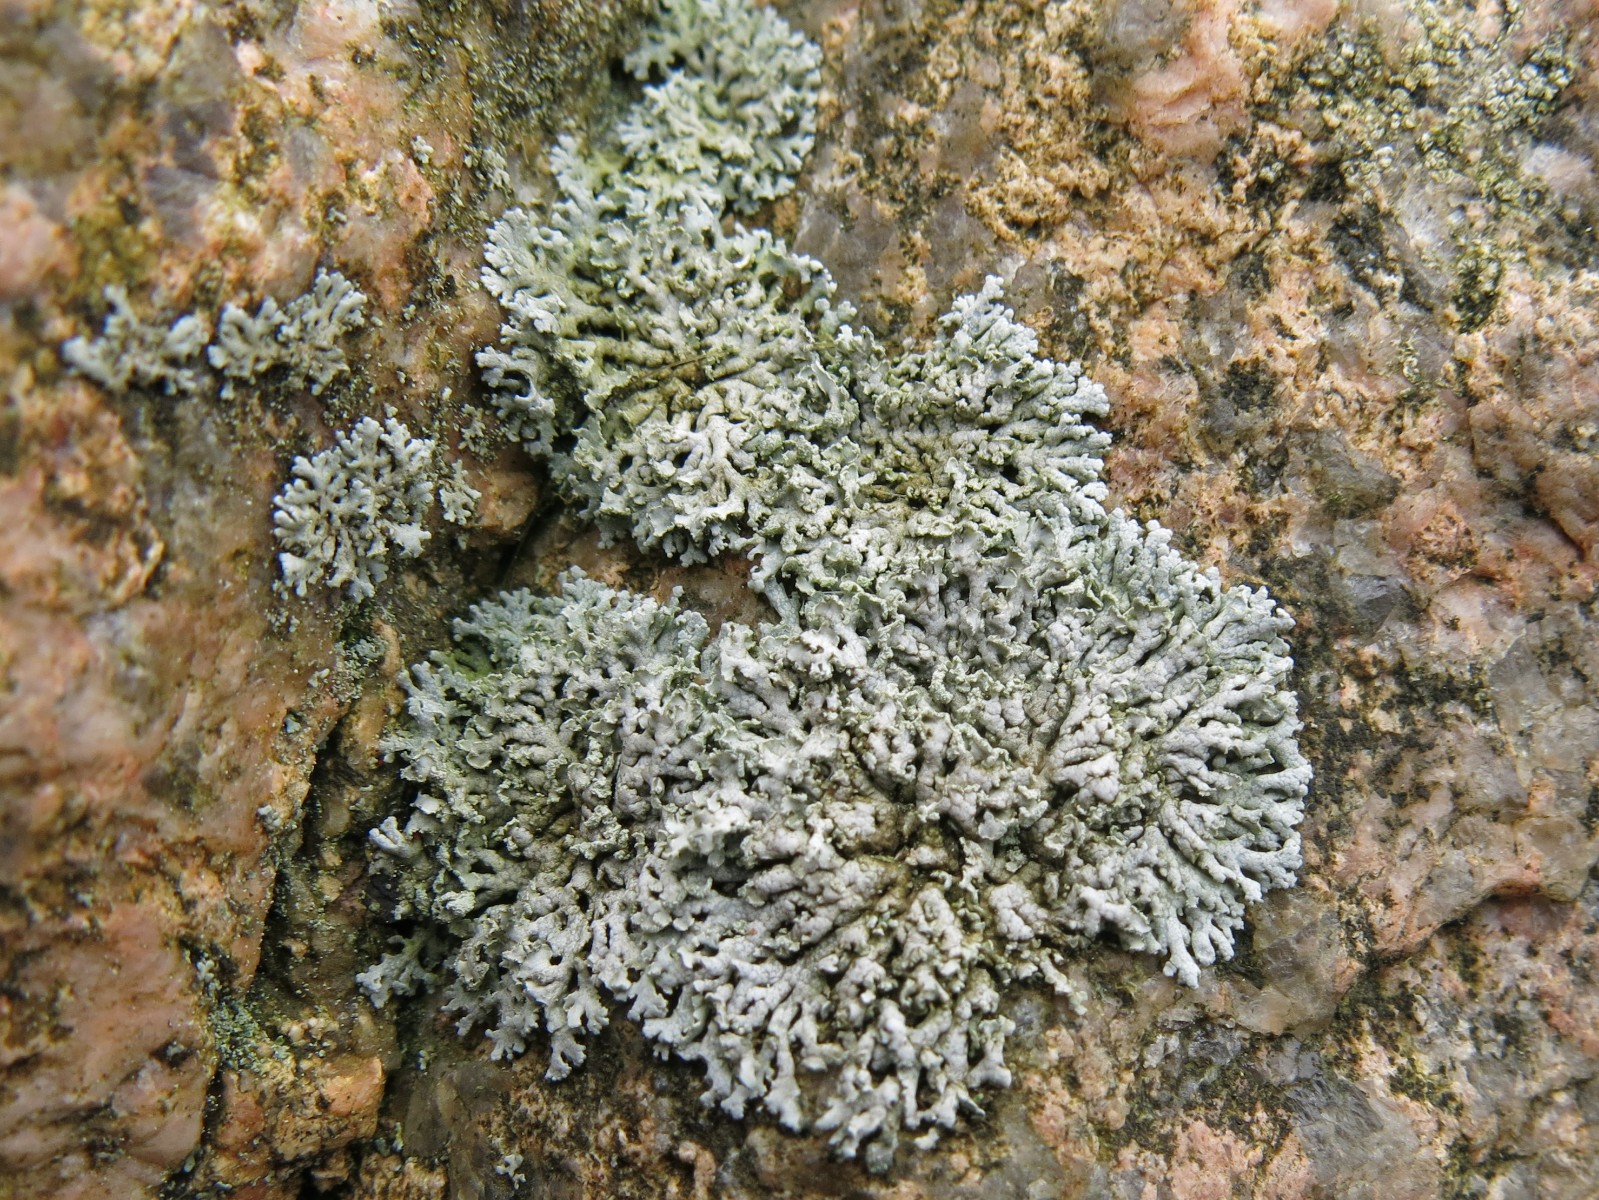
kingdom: Fungi
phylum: Ascomycota
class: Lecanoromycetes
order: Caliciales
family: Physciaceae
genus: Physcia
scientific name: Physcia dubia
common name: fuglestens-rosetlav
